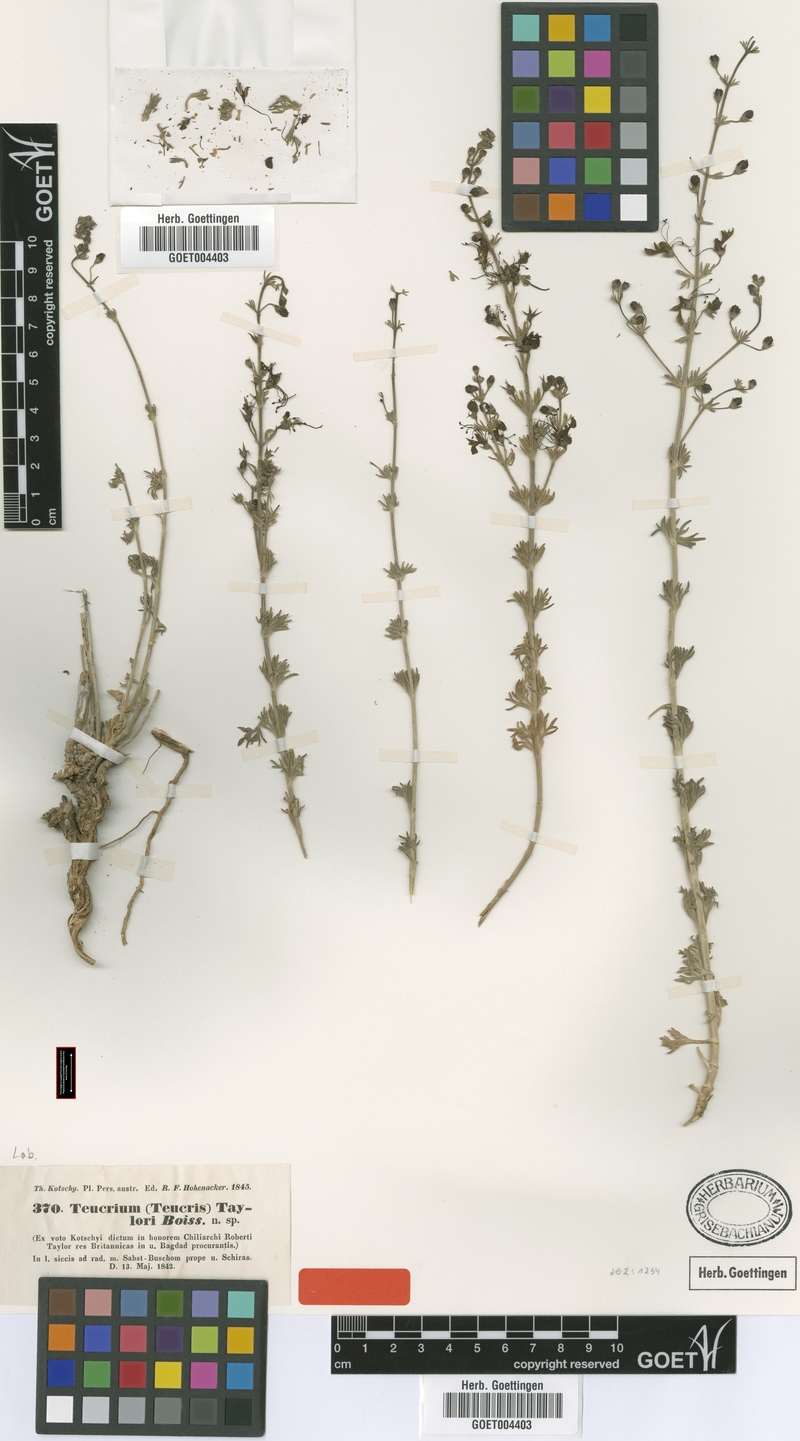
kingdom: Plantae
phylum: Tracheophyta
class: Magnoliopsida
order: Lamiales
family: Lamiaceae
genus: Teucrium
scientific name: Teucrium orientale
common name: Oriental germander
